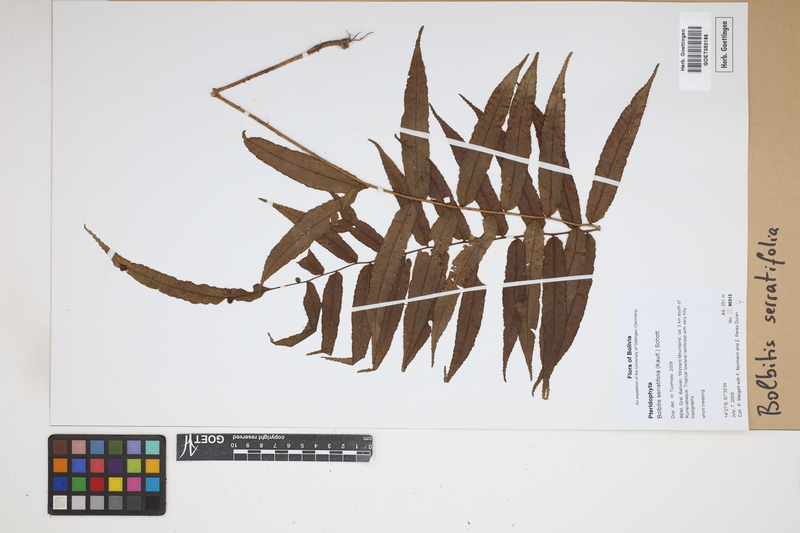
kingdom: Plantae
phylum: Tracheophyta
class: Polypodiopsida
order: Polypodiales
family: Dryopteridaceae
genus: Bolbitis
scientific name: Bolbitis serratifolia
